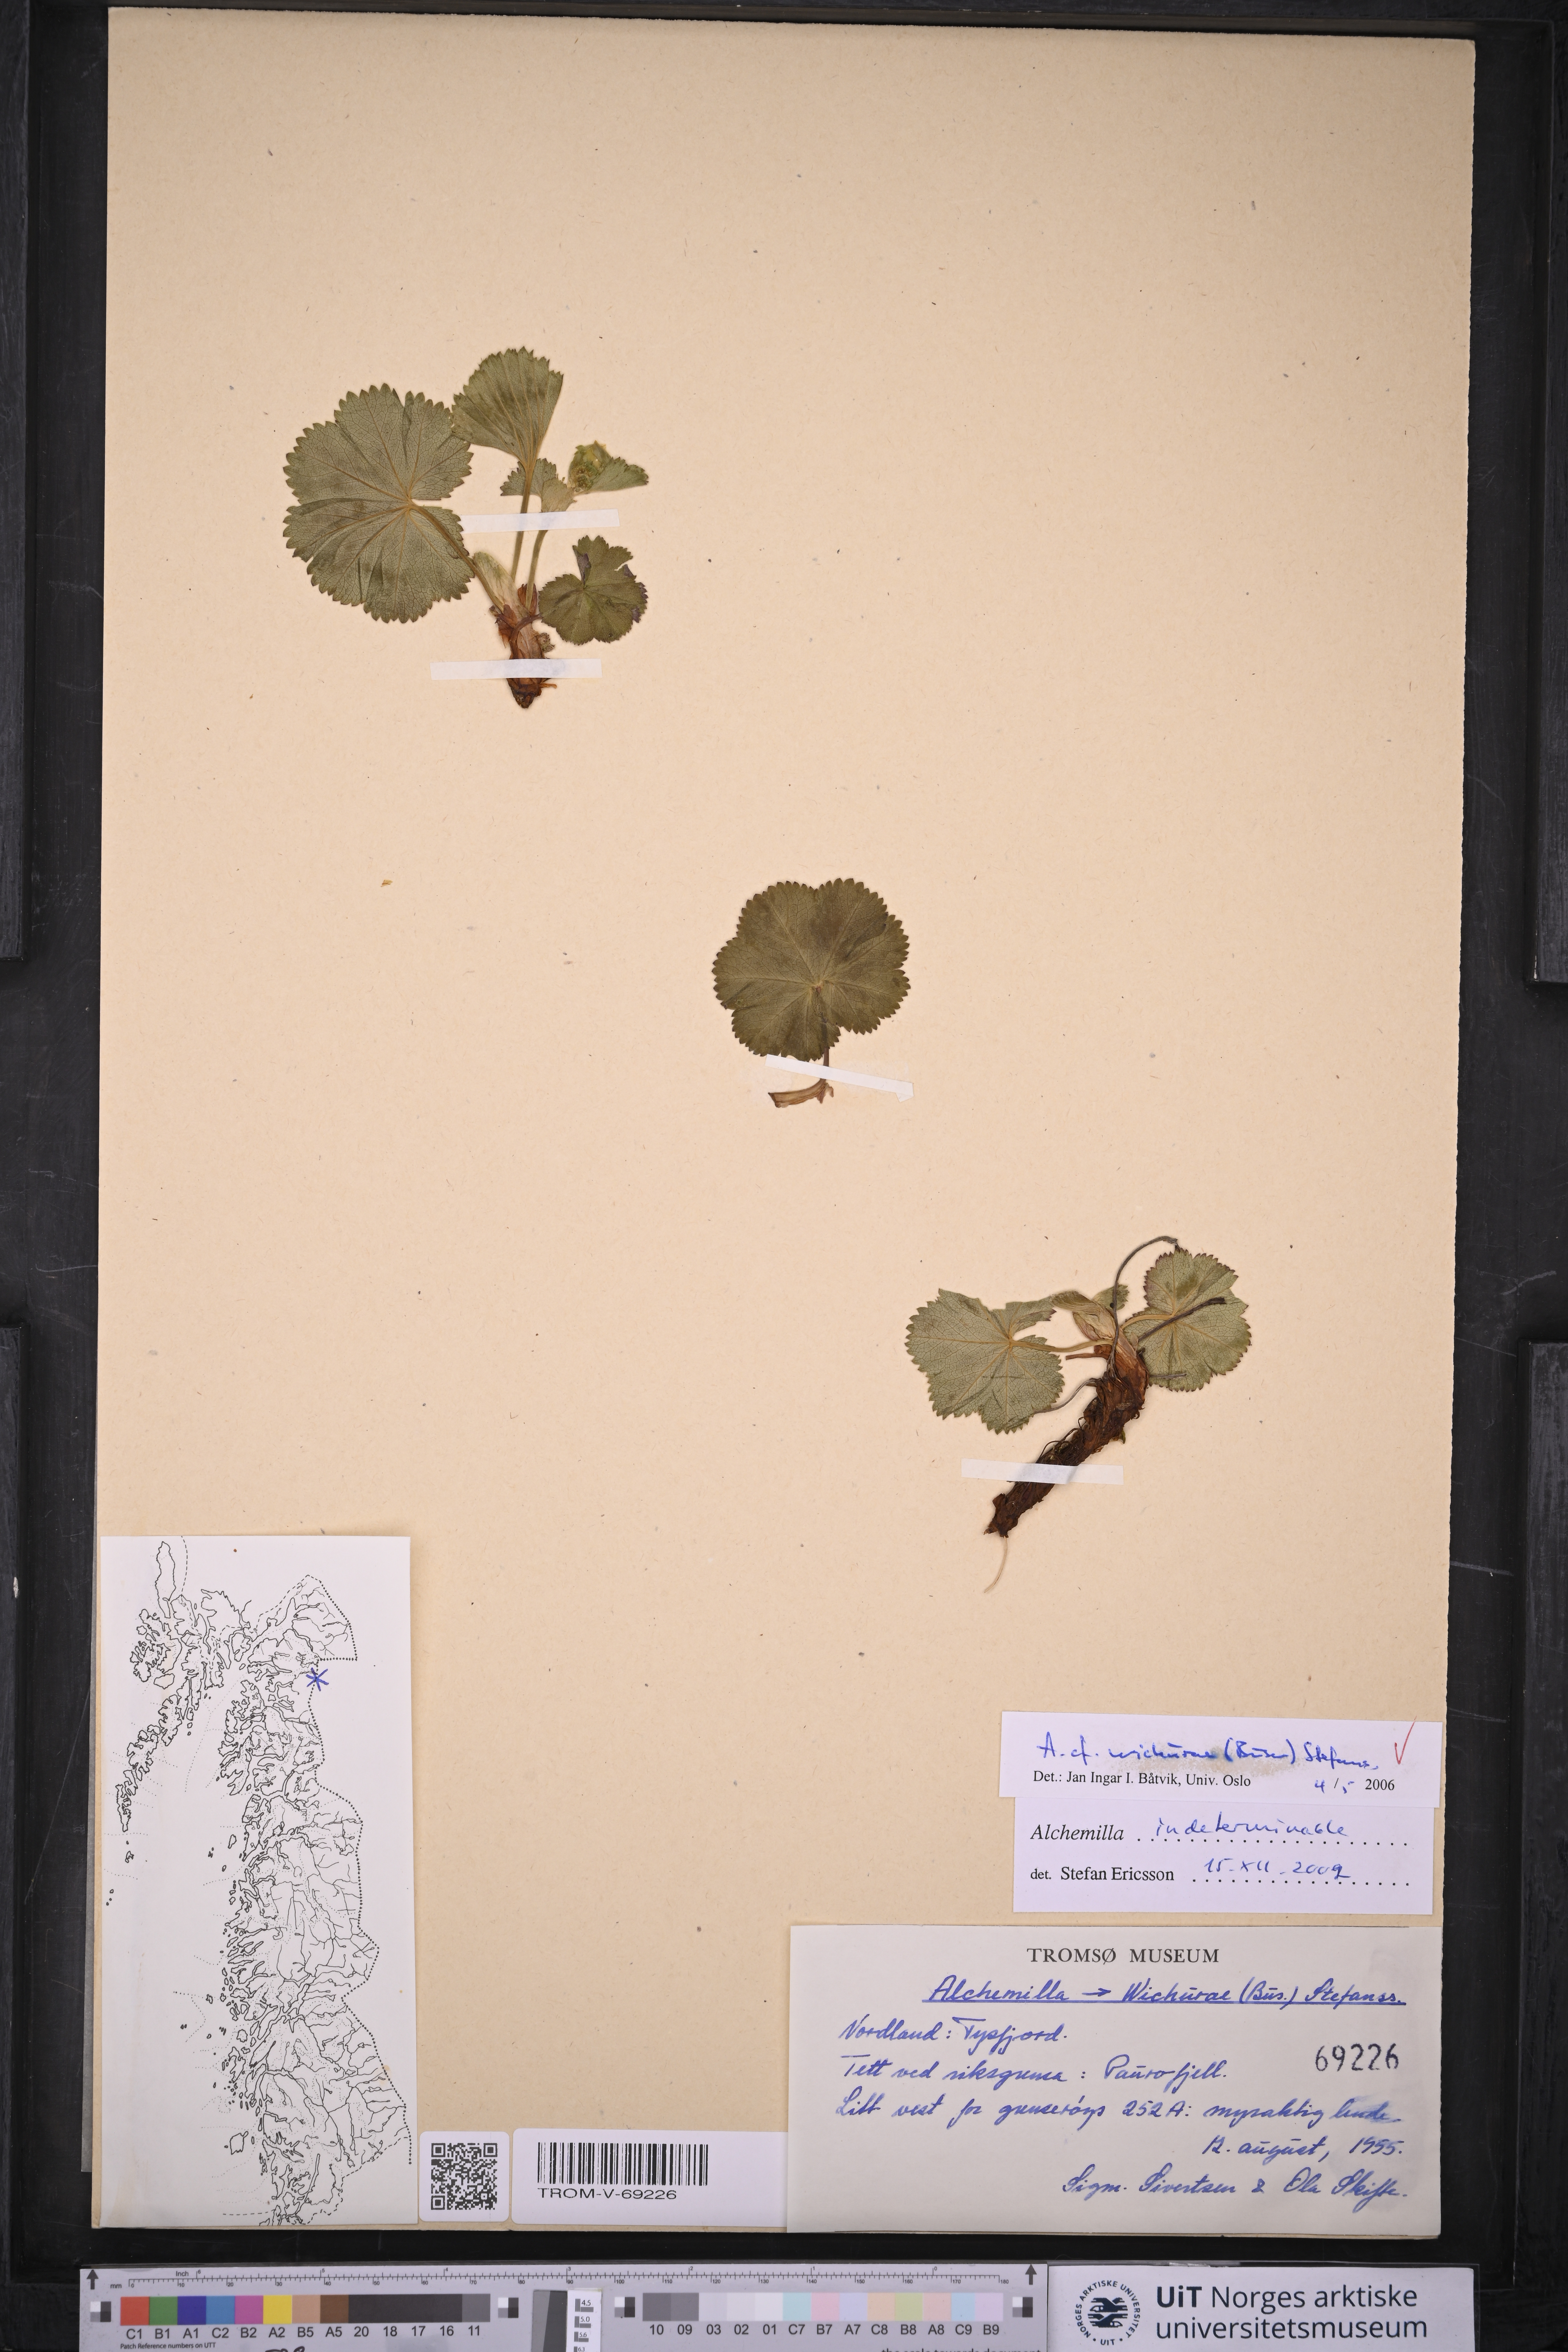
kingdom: Plantae
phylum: Tracheophyta
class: Magnoliopsida
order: Rosales
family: Rosaceae
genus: Alchemilla
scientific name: Alchemilla wichurae
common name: Rock lady's mantle
